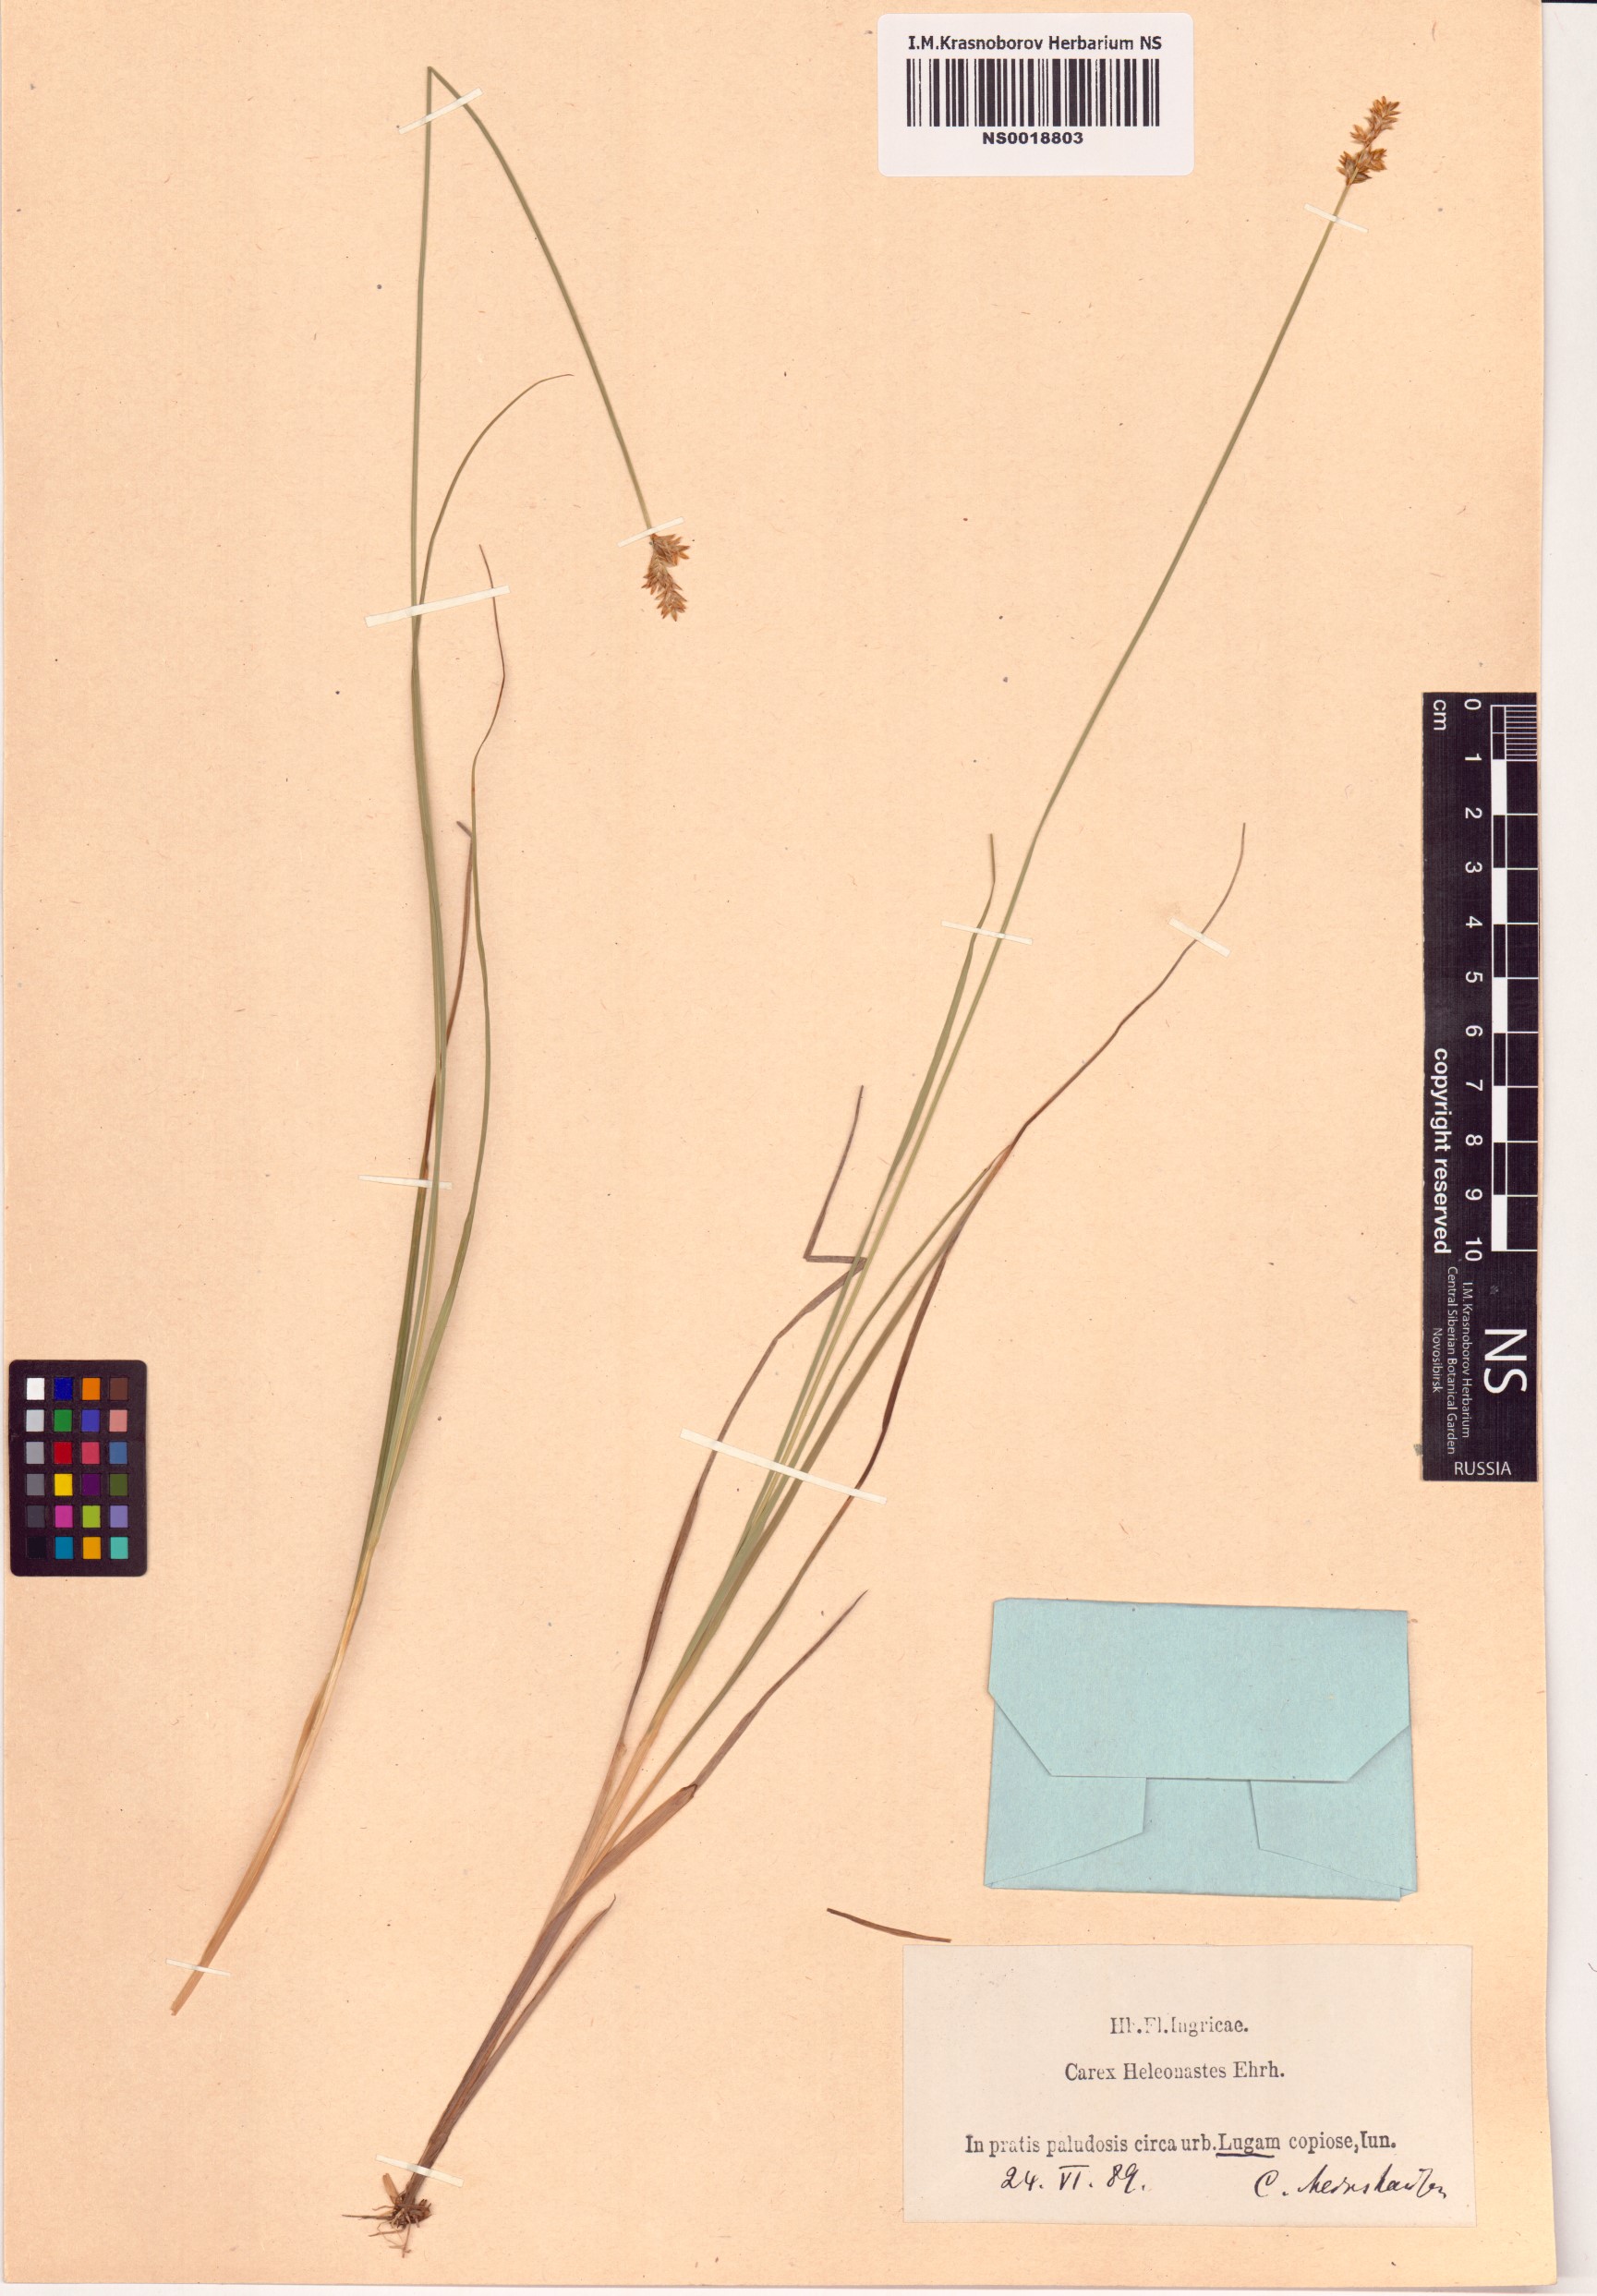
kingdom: Plantae
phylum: Tracheophyta
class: Liliopsida
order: Poales
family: Cyperaceae
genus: Carex
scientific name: Carex heleonastes
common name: Hudson bay sedge
